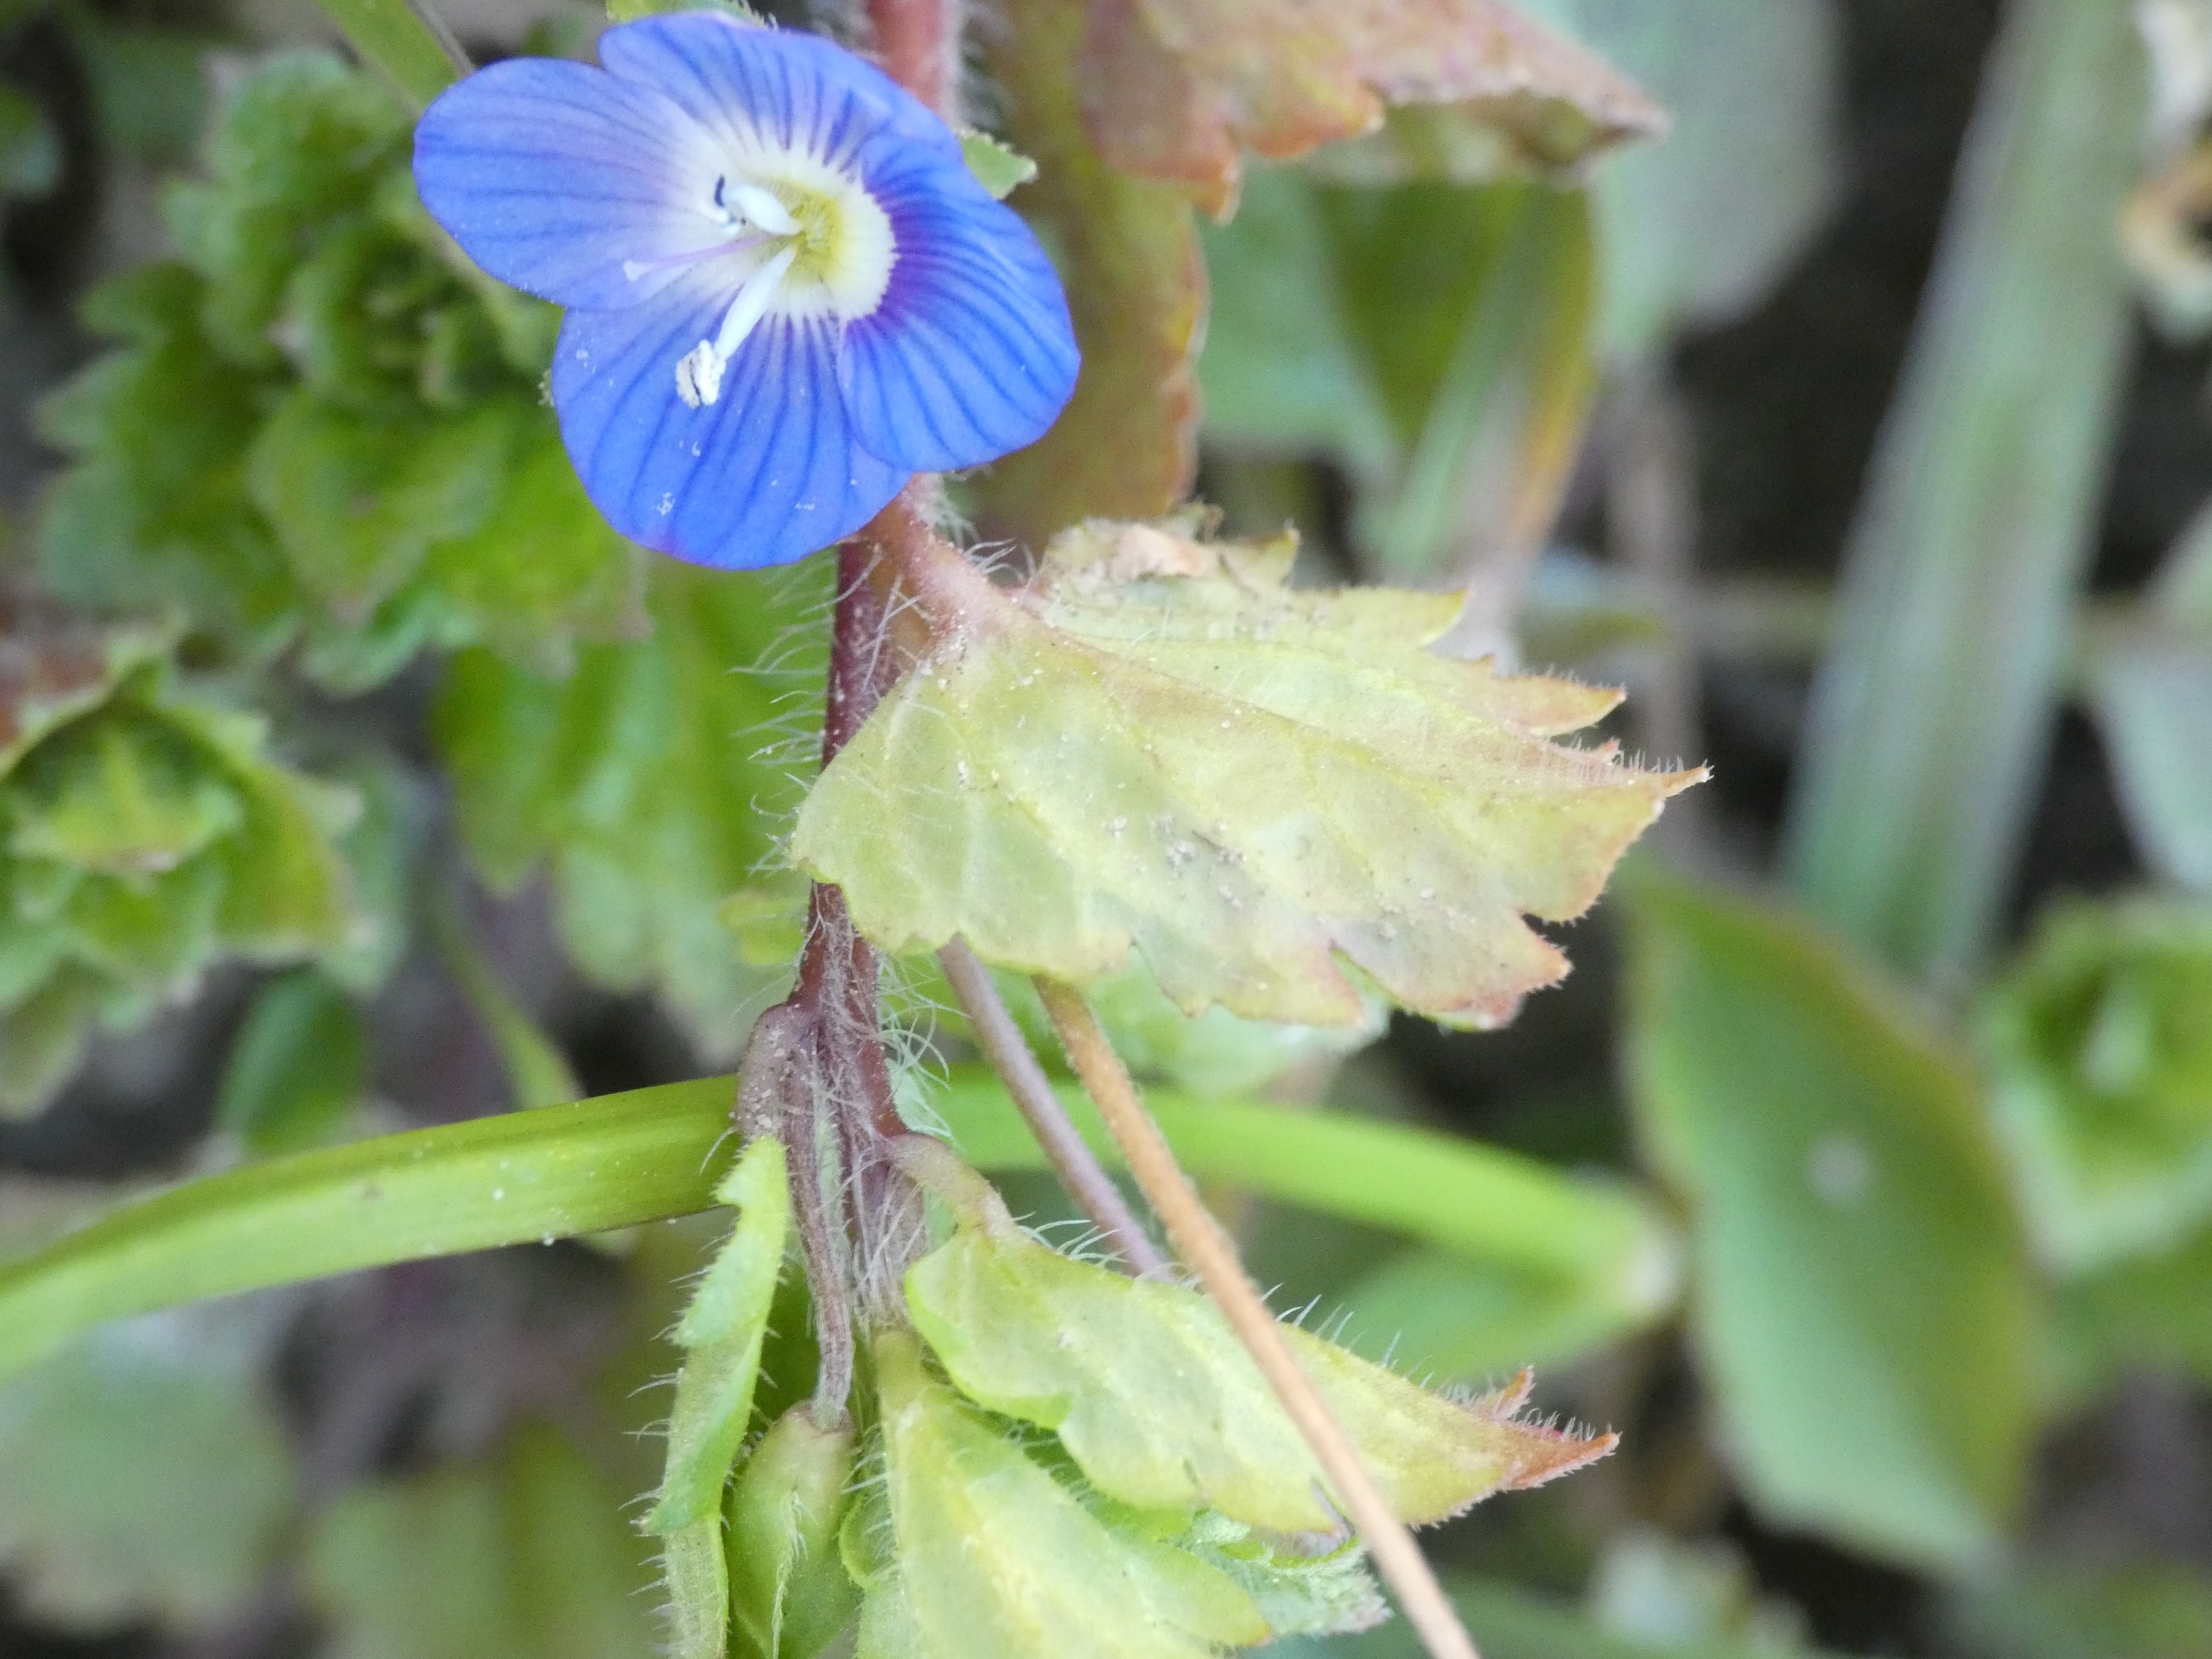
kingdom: Plantae
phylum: Tracheophyta
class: Magnoliopsida
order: Lamiales
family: Plantaginaceae
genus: Veronica
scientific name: Veronica persica
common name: Storkronet ærenpris
